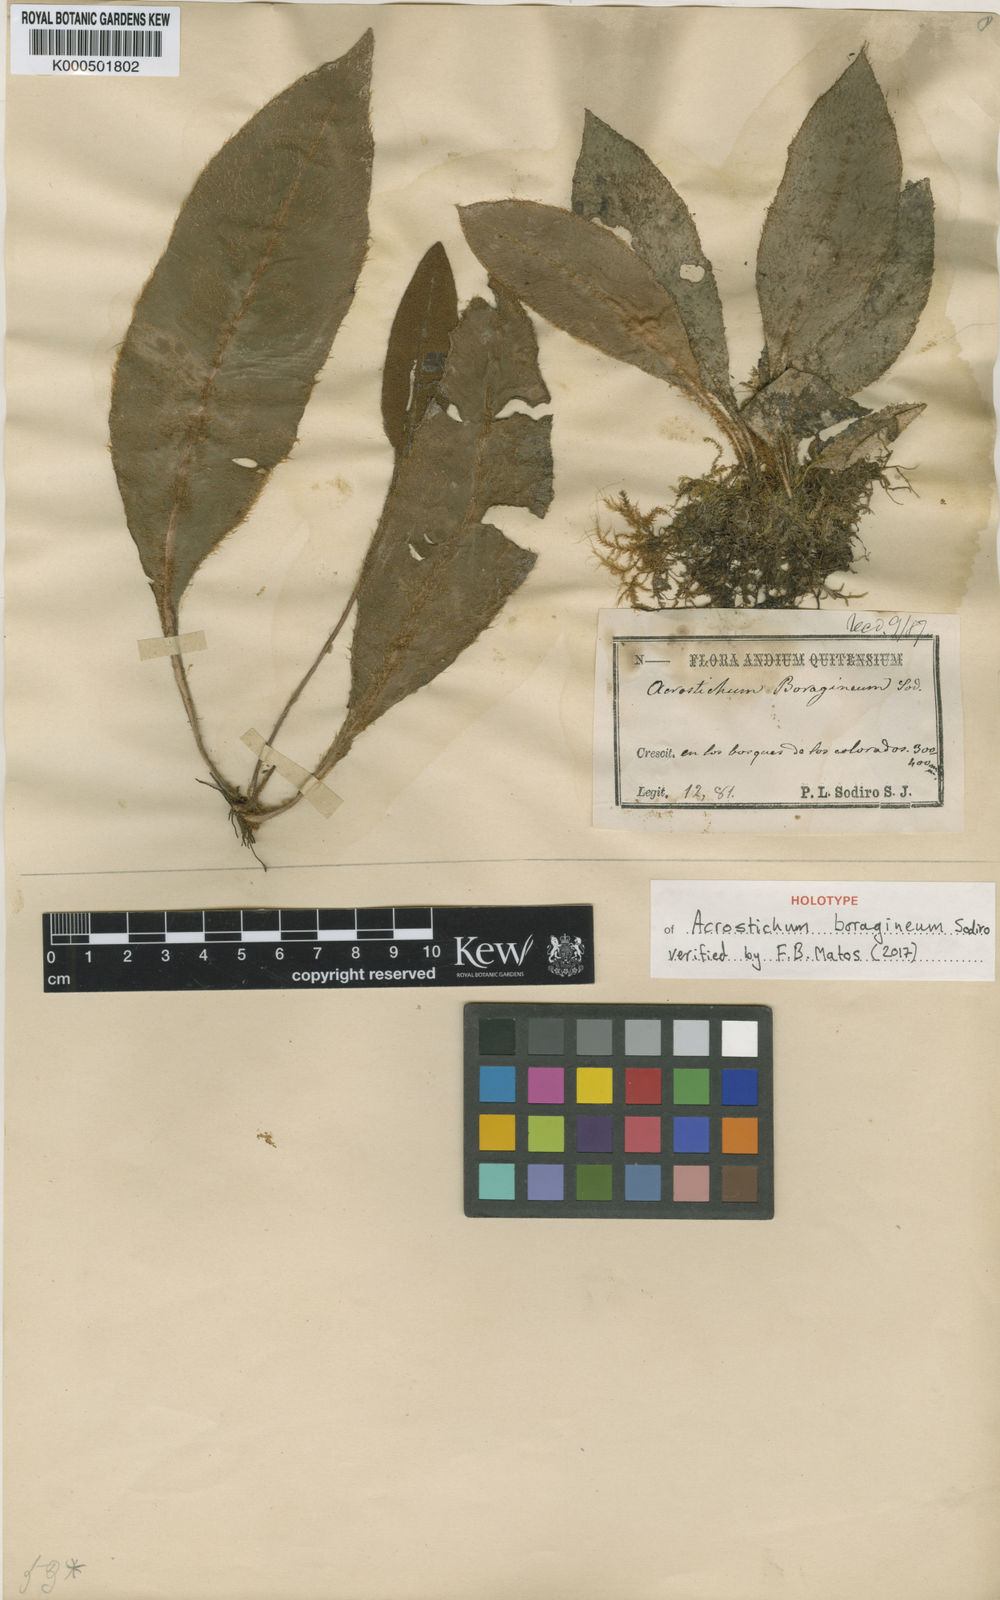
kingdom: Plantae
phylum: Tracheophyta
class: Polypodiopsida
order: Polypodiales
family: Dryopteridaceae
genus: Elaphoglossum
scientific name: Elaphoglossum boragineum
